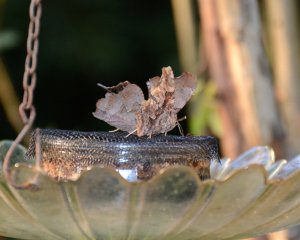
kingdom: Animalia
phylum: Arthropoda
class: Insecta
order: Lepidoptera
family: Nymphalidae
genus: Polygonia
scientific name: Polygonia comma
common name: Eastern Comma
